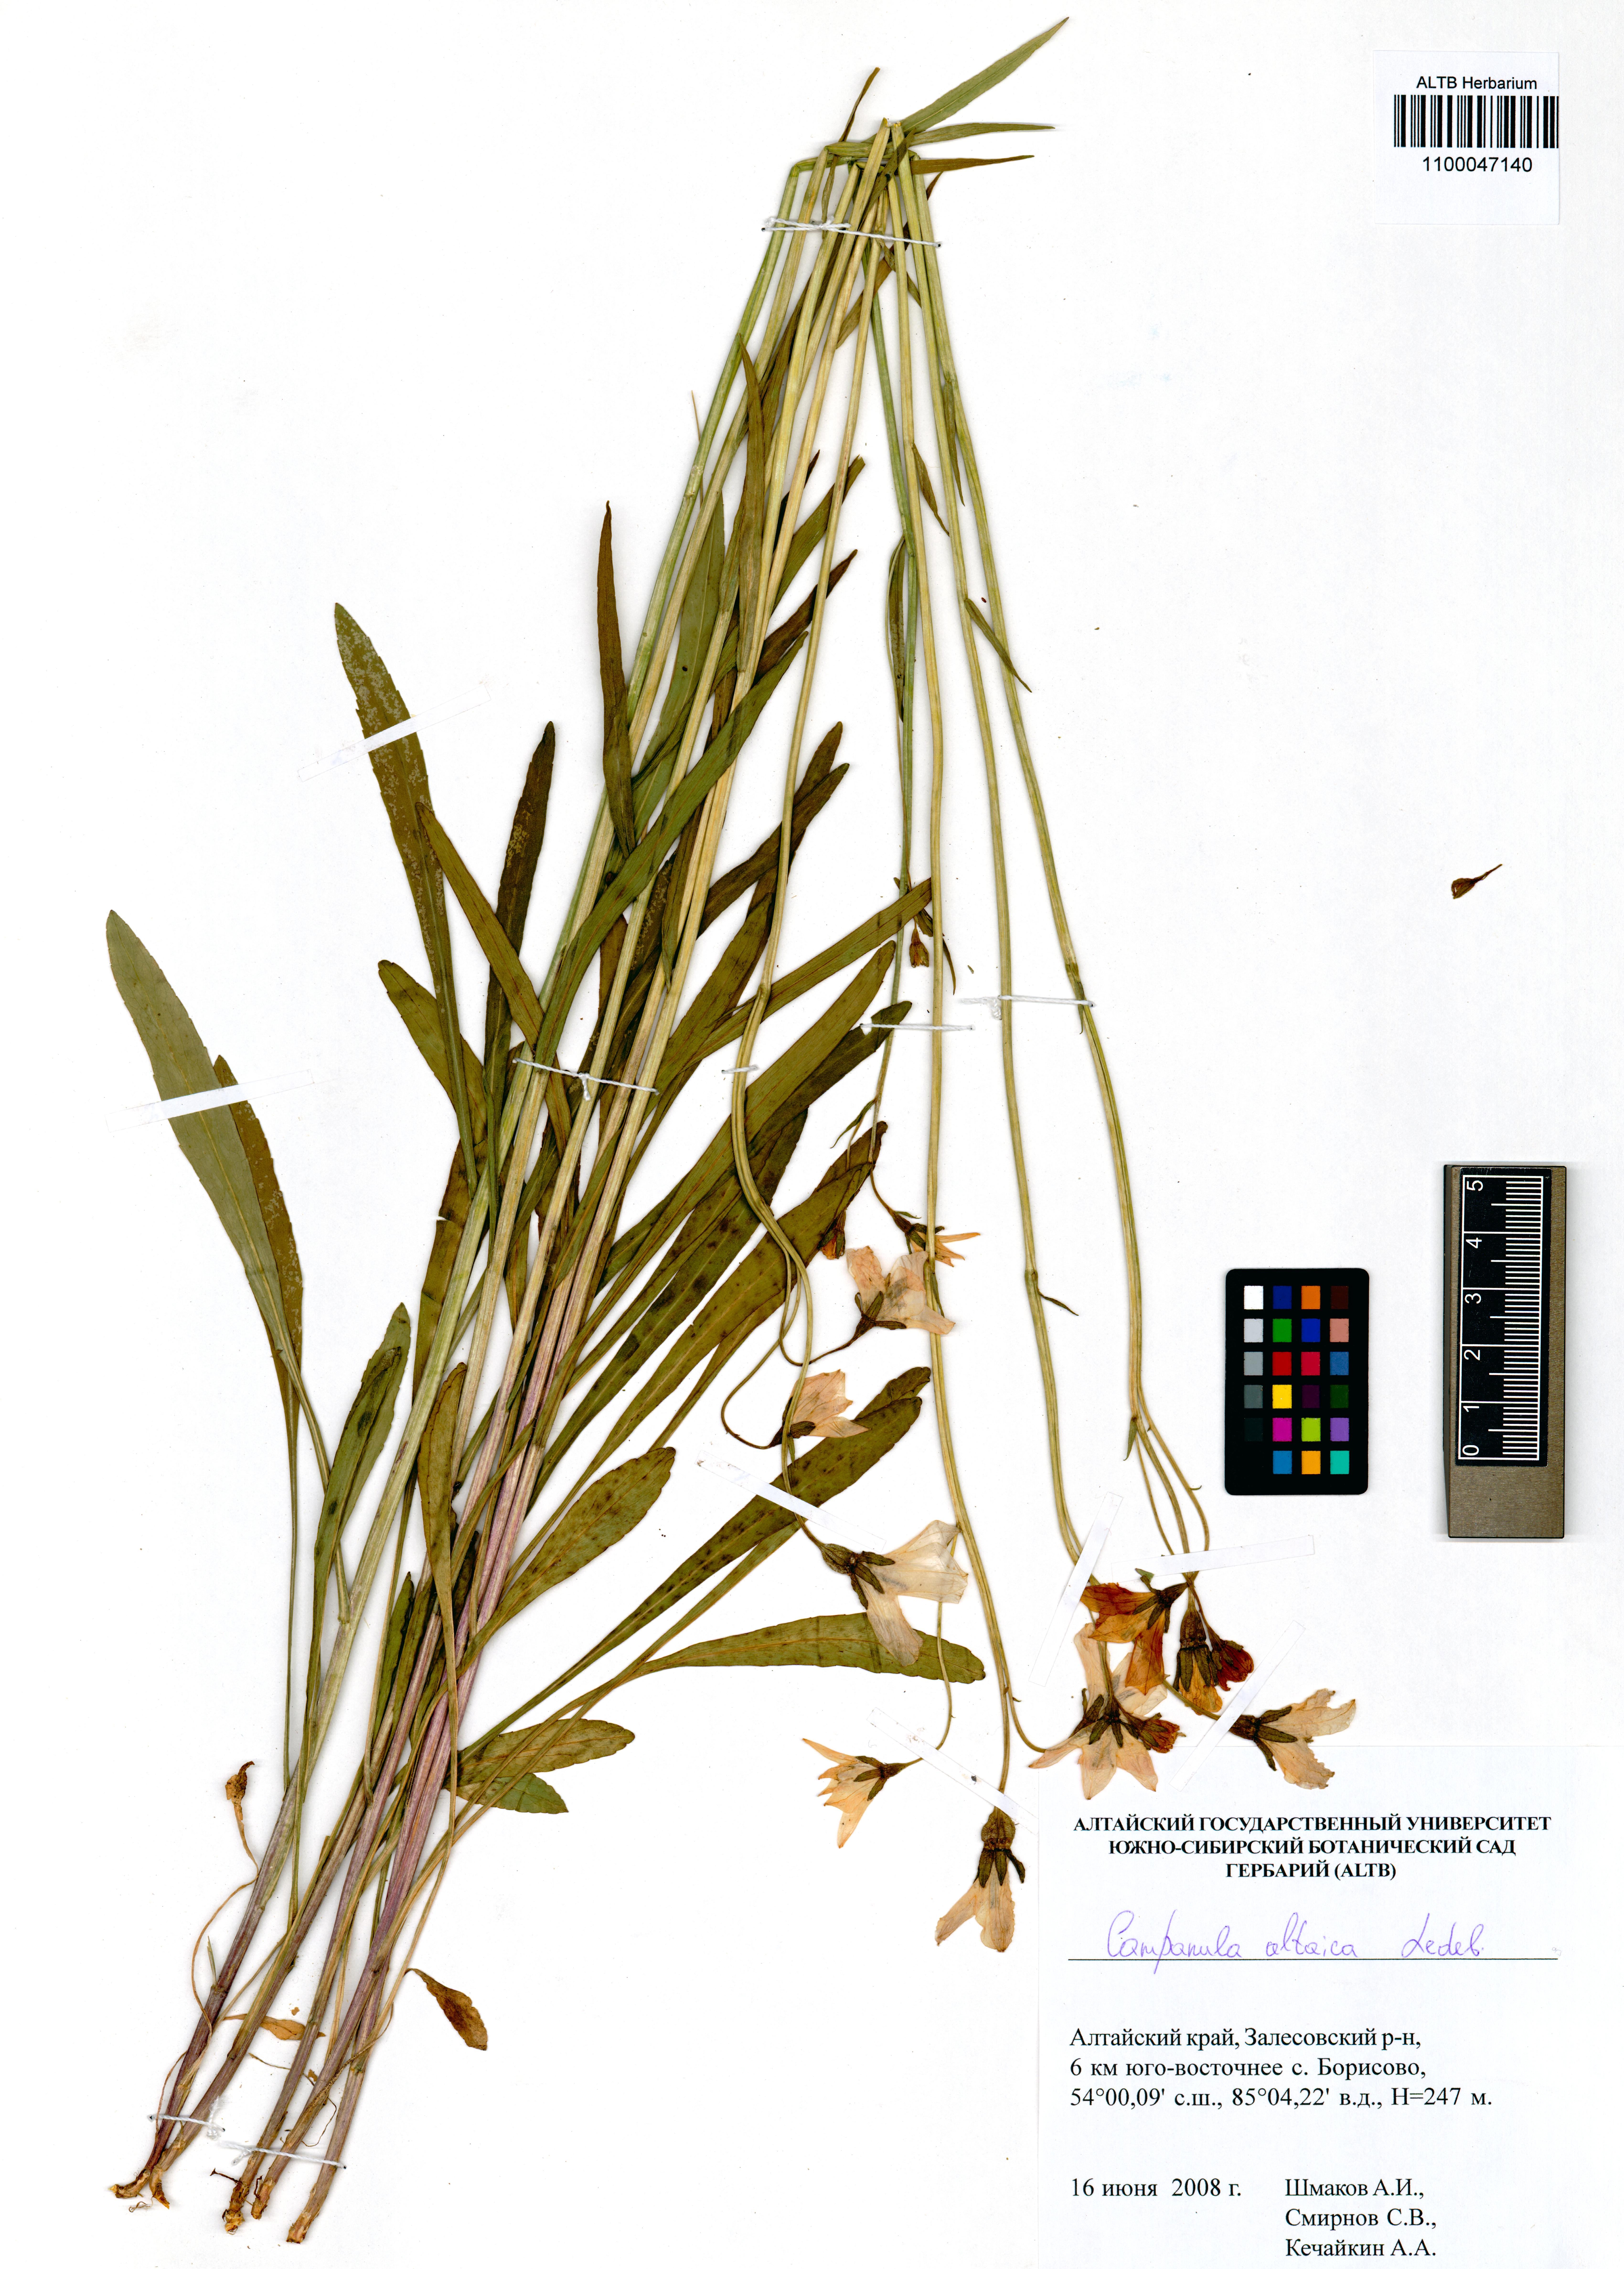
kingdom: Plantae
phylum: Tracheophyta
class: Magnoliopsida
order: Asterales
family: Campanulaceae
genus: Campanula
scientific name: Campanula stevenii
